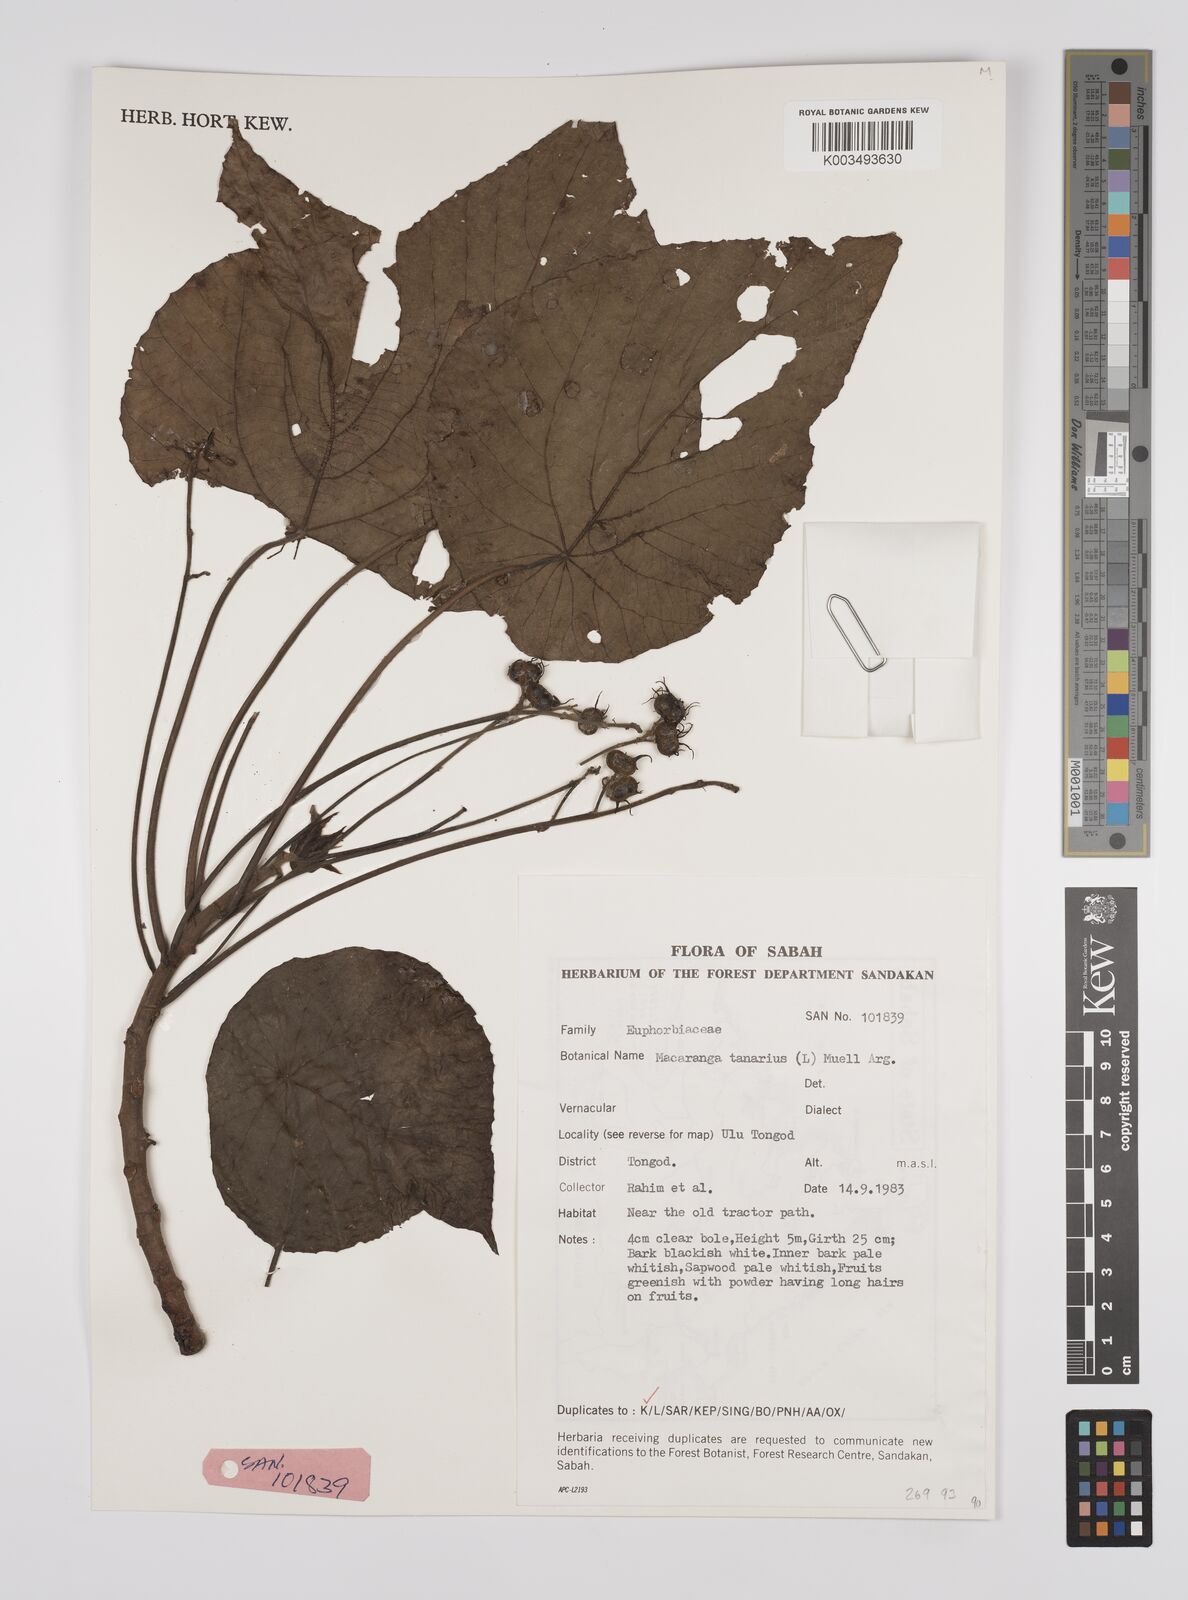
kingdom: Plantae
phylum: Tracheophyta
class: Magnoliopsida
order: Malpighiales
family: Euphorbiaceae
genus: Macaranga
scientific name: Macaranga tanarius
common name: Parasol leaf tree
